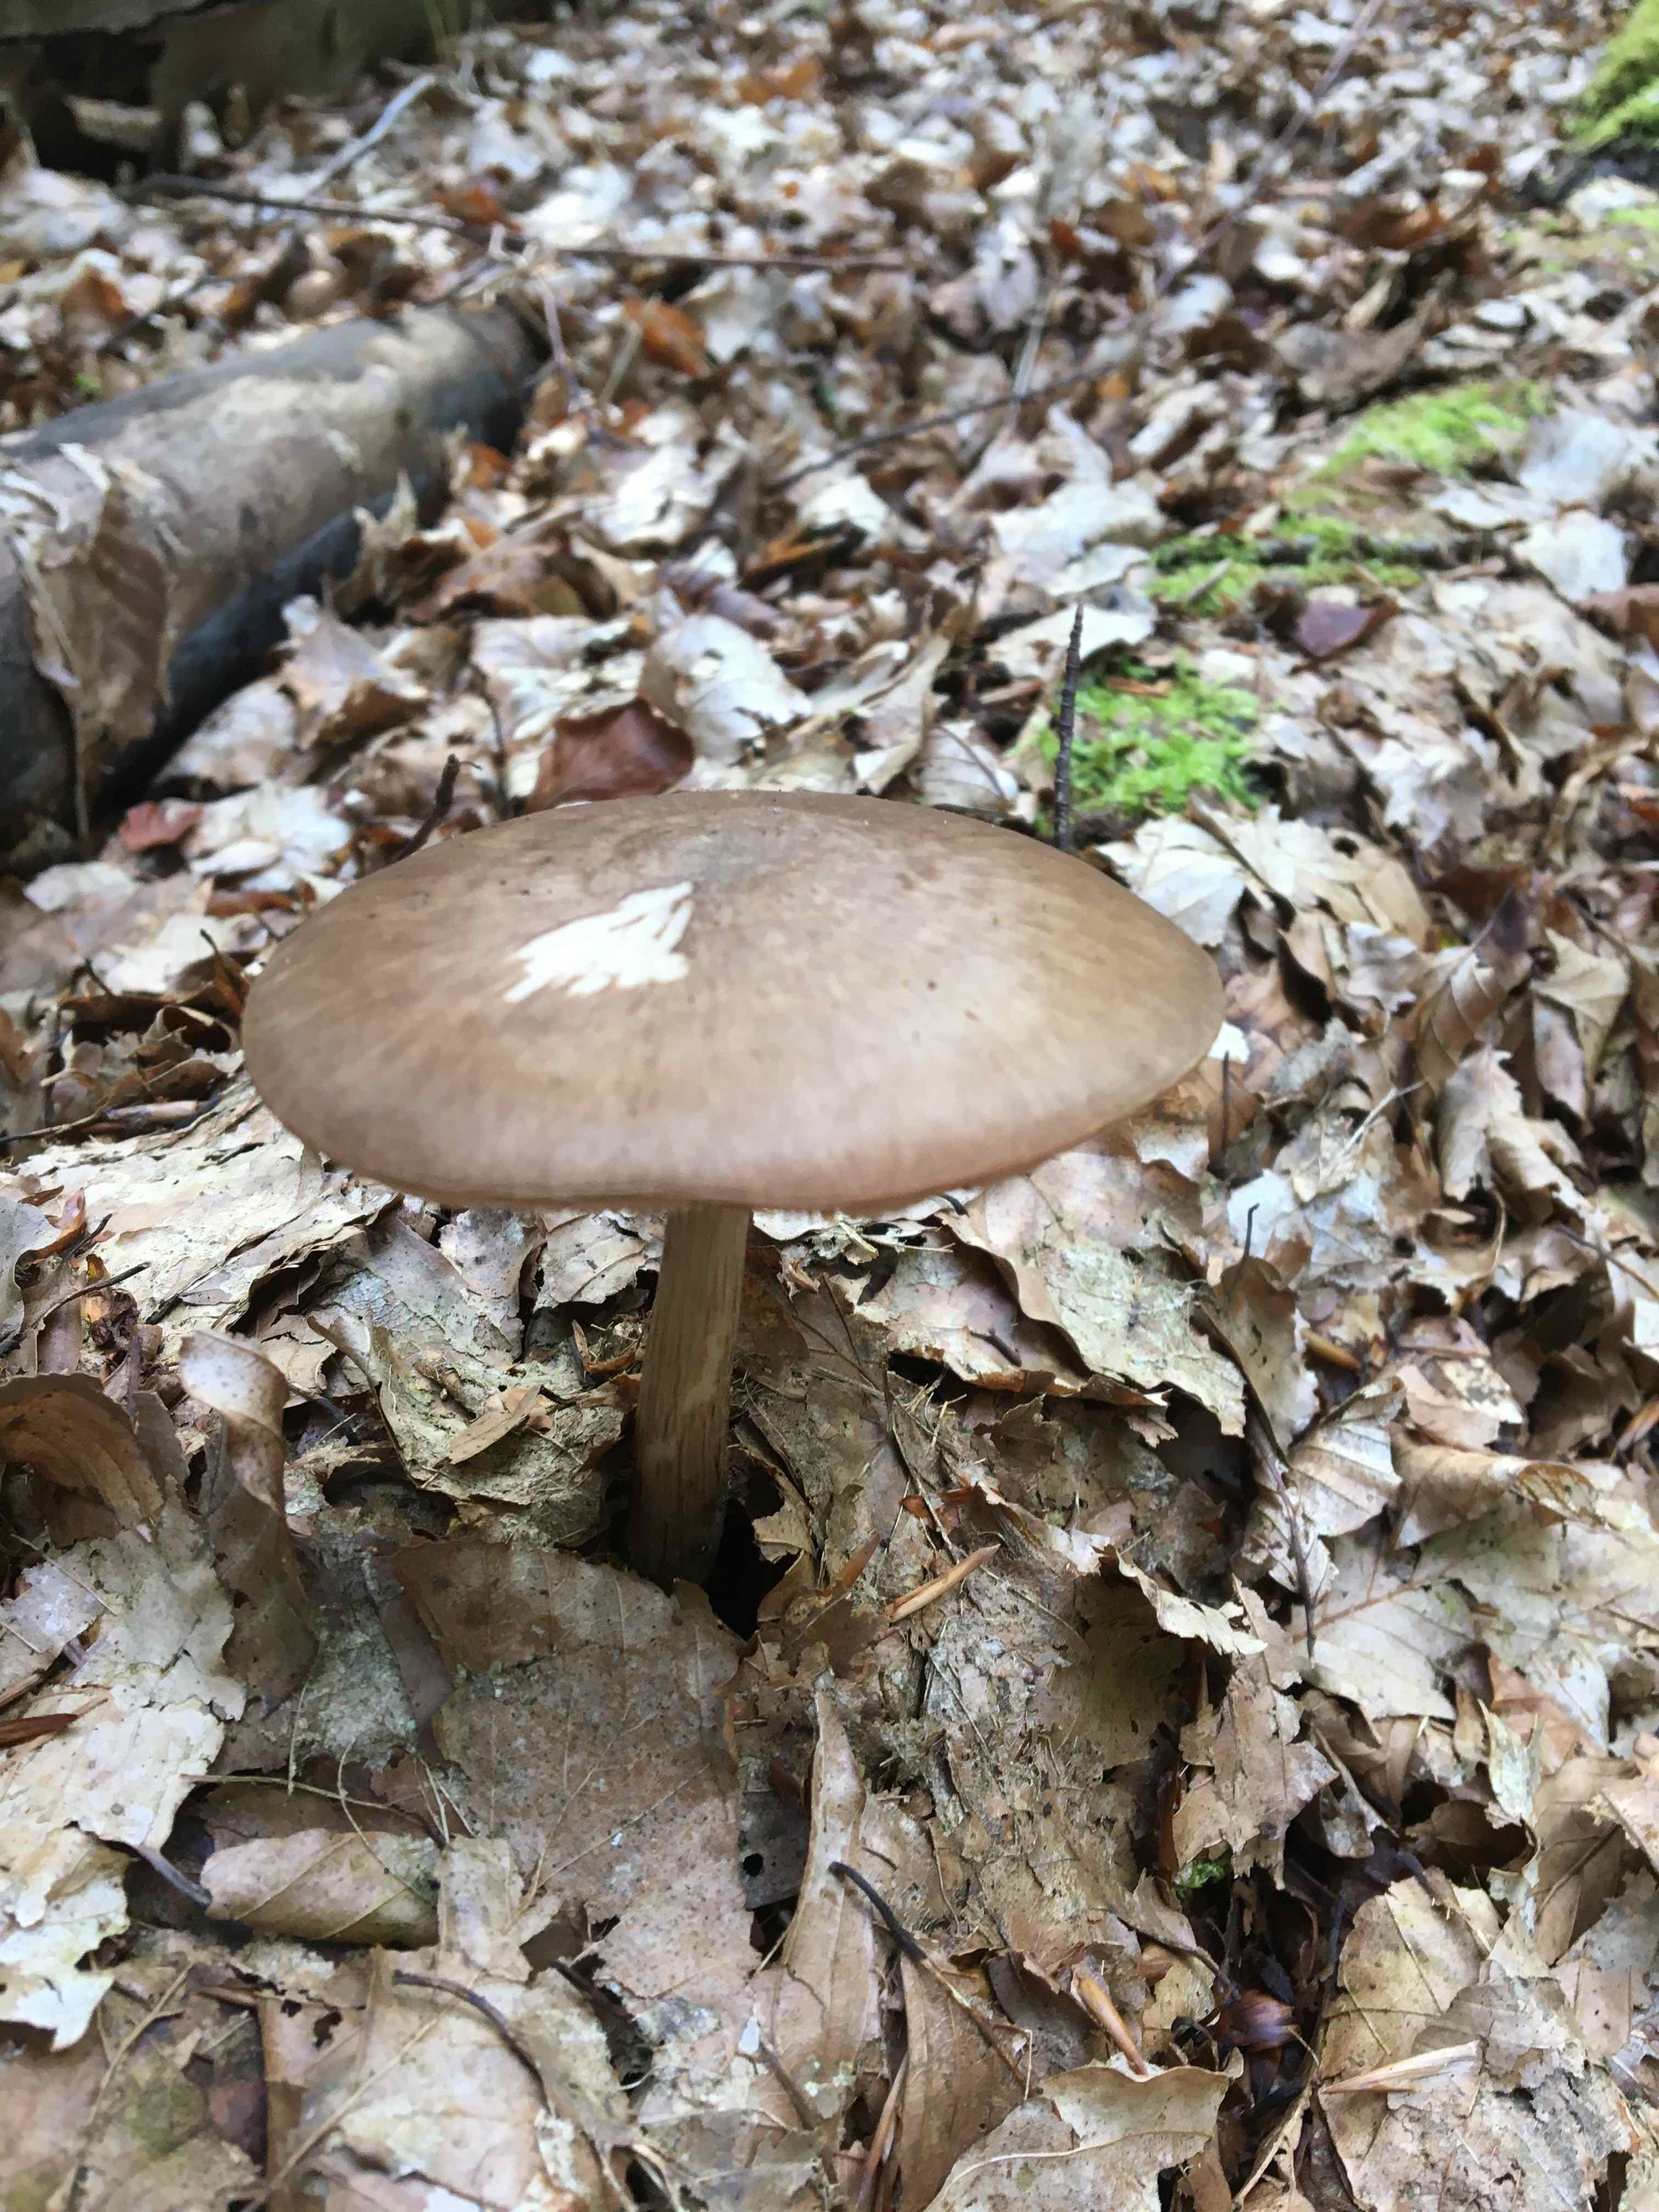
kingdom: Fungi
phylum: Basidiomycota
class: Agaricomycetes
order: Agaricales
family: Pluteaceae
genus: Pluteus
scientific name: Pluteus cervinus
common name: sodfarvet skærmhat
